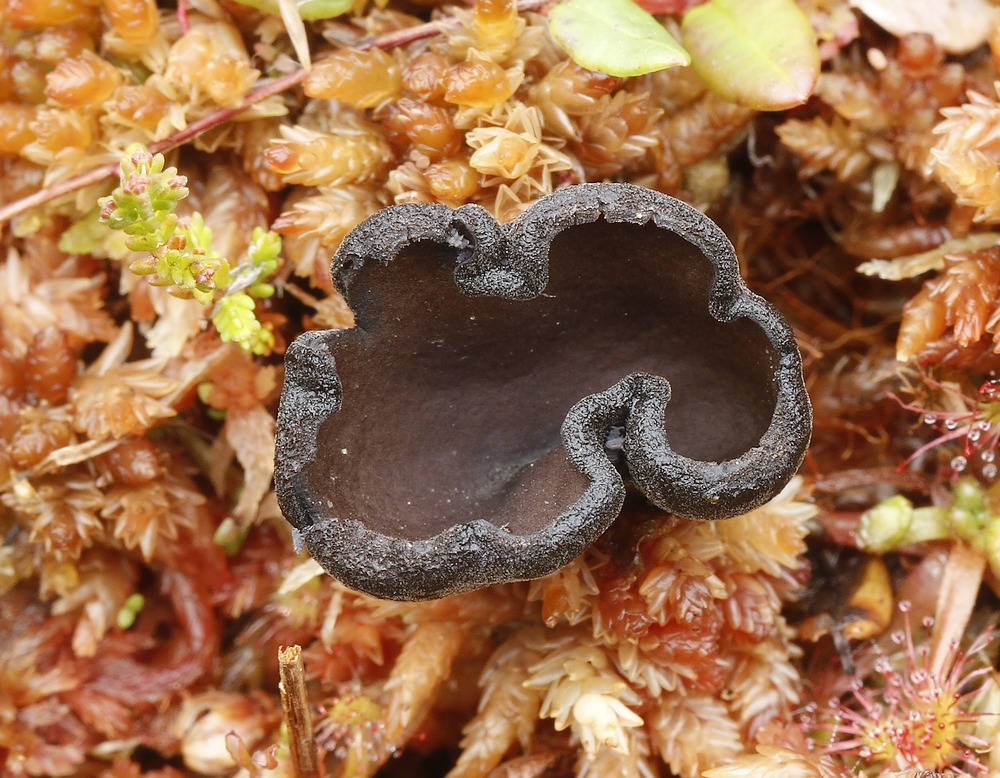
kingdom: Fungi
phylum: Ascomycota
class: Pezizomycetes
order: Pezizales
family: Sarcosomataceae
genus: Pseudoplectania
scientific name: Pseudoplectania episphagnum
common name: tørvemos-sortbæger
